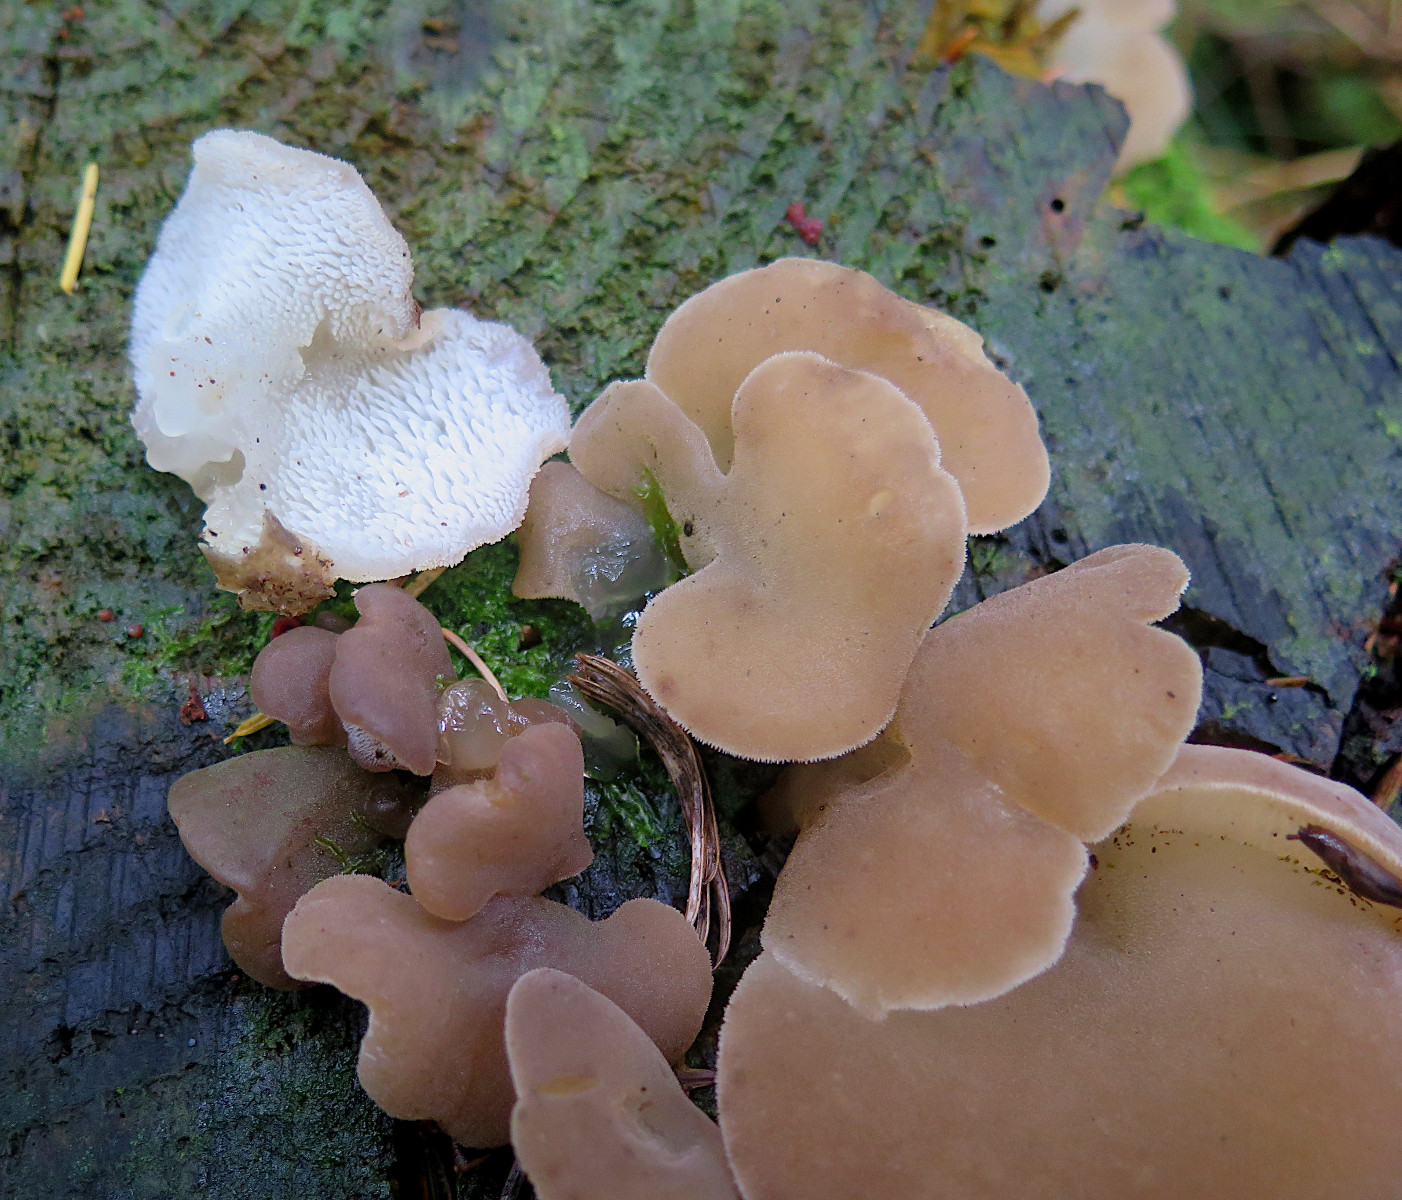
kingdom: Fungi
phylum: Basidiomycota
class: Agaricomycetes
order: Auriculariales
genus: Pseudohydnum
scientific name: Pseudohydnum gelatinosum
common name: bævretand
